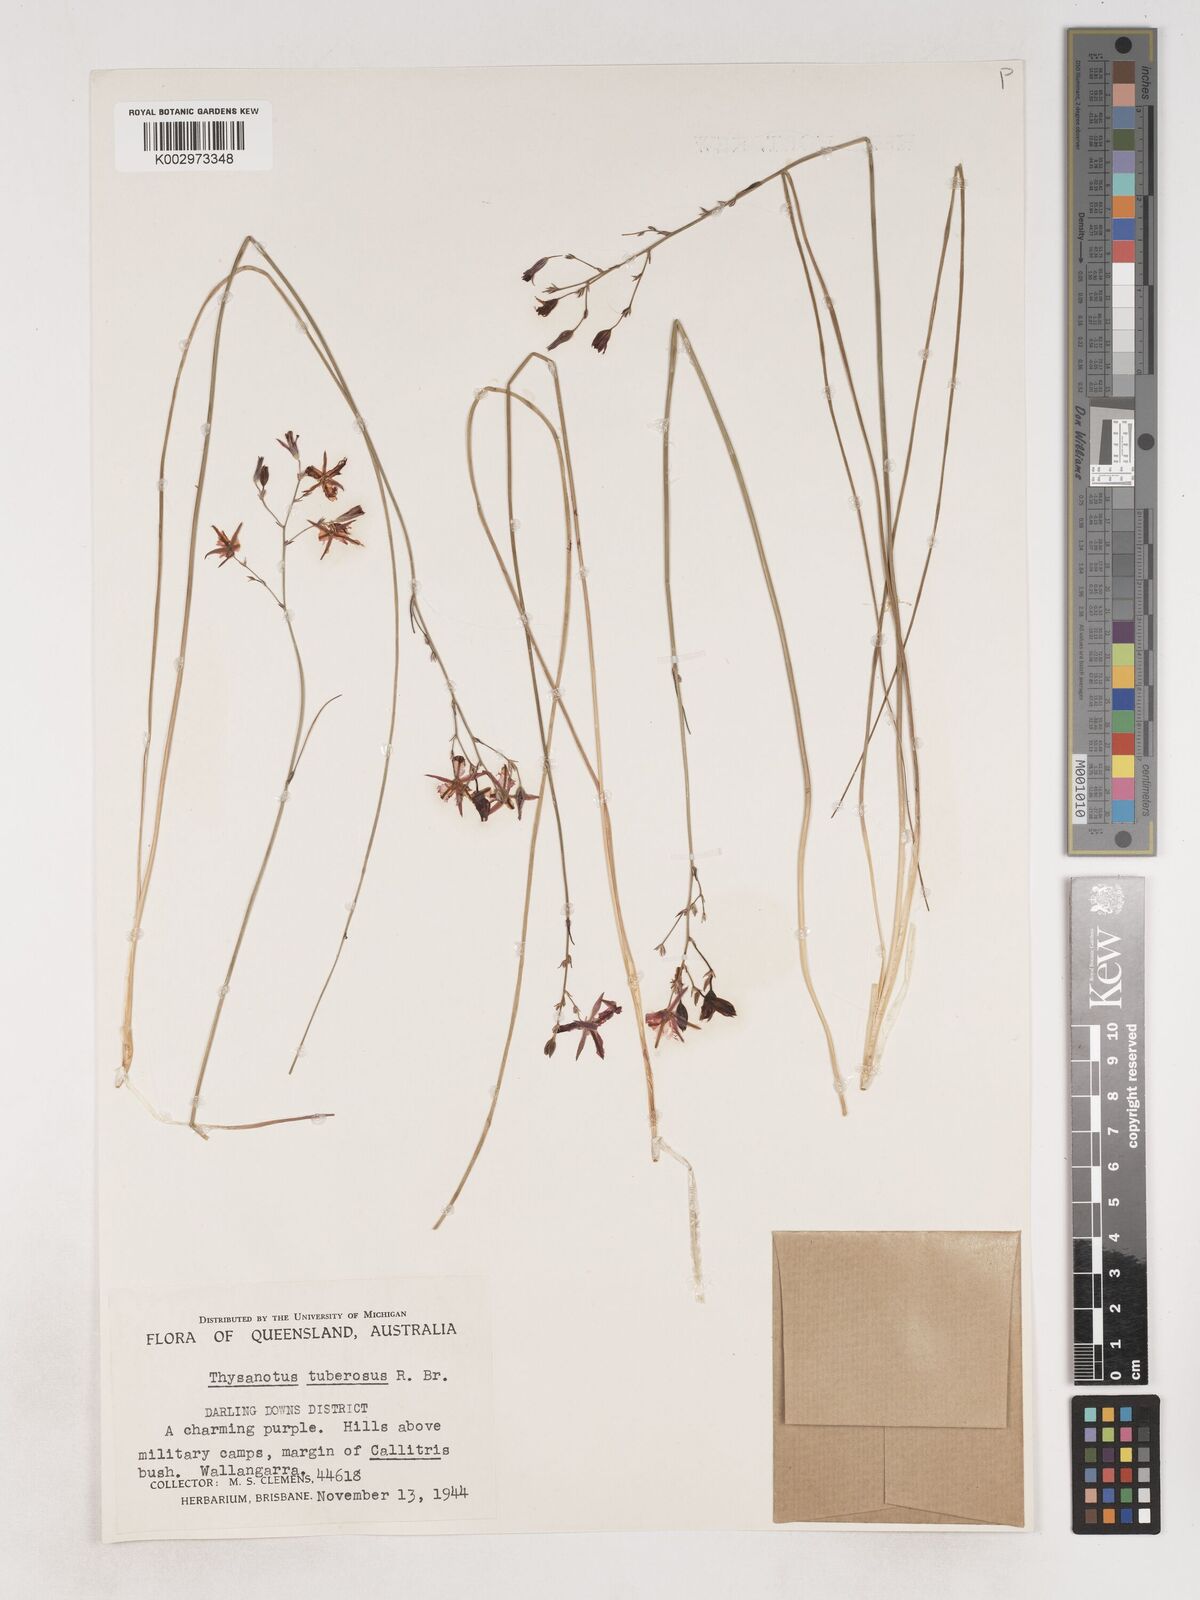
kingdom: Plantae
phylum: Tracheophyta
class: Liliopsida
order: Asparagales
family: Asparagaceae
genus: Thysanotus
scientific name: Thysanotus tuberosus
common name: Common fringed-lily
